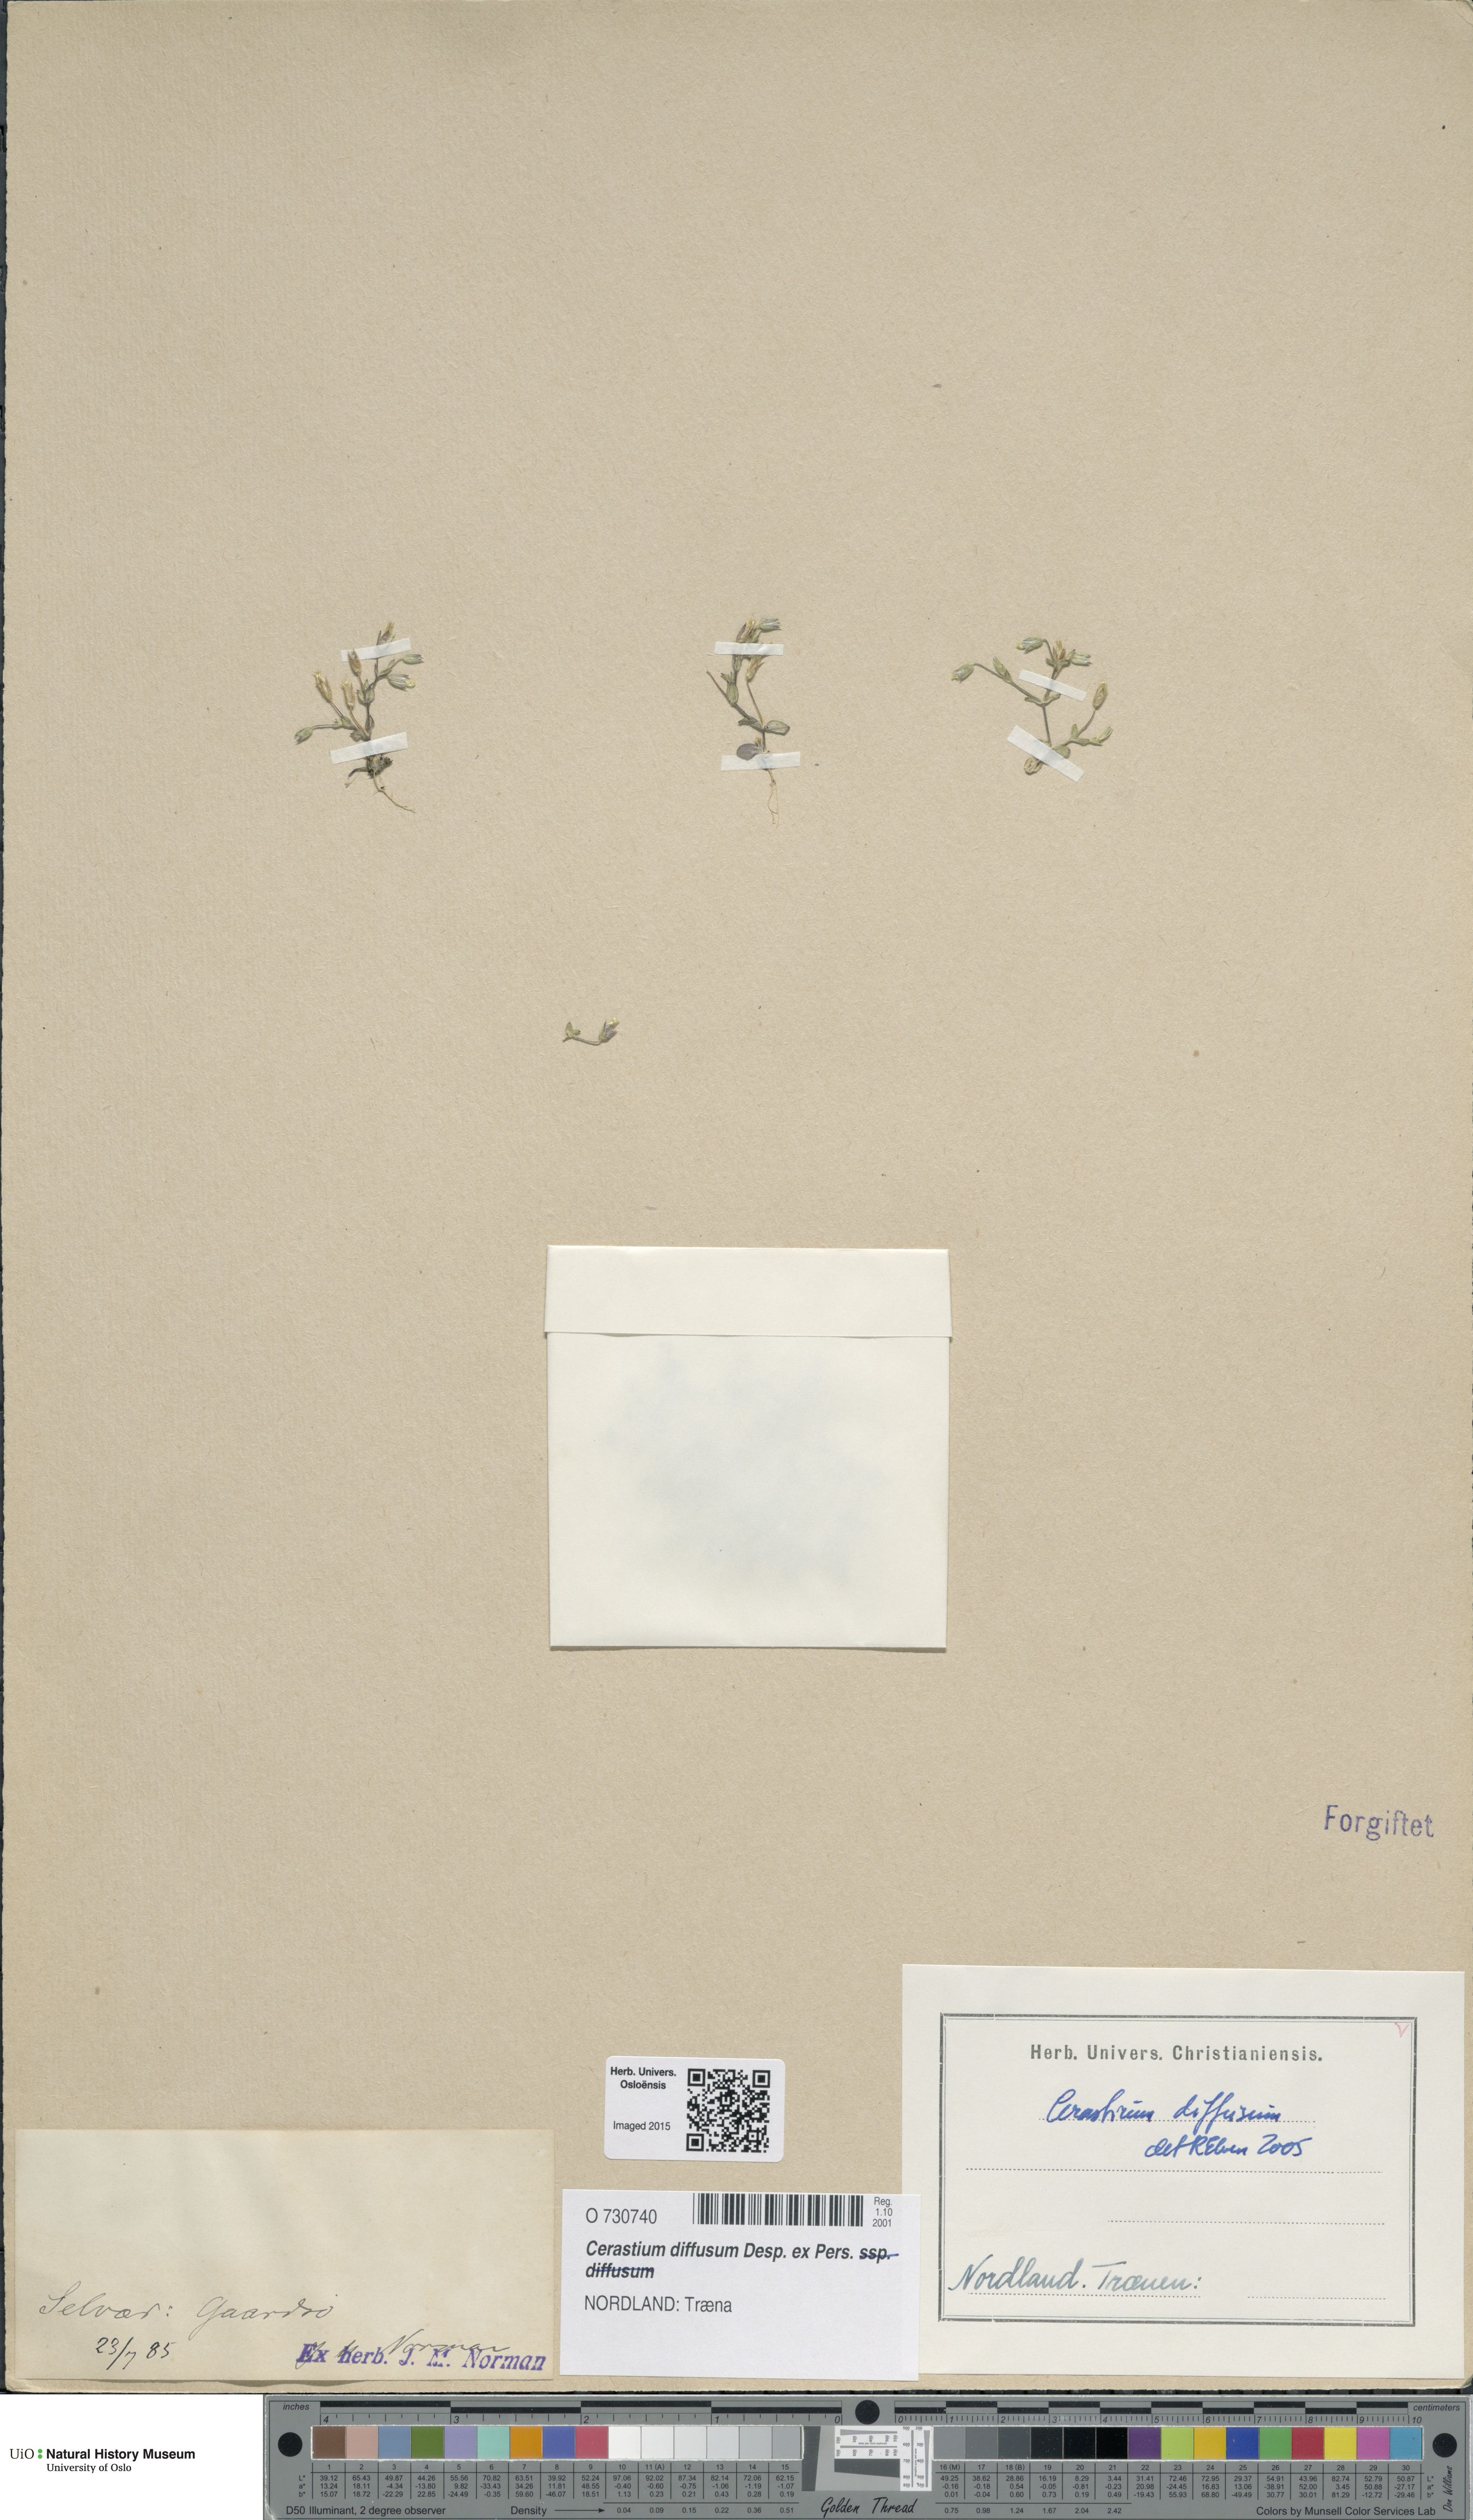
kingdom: Plantae
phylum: Tracheophyta
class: Magnoliopsida
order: Caryophyllales
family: Caryophyllaceae
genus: Cerastium
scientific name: Cerastium diffusum
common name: Fourstamen chickweed
